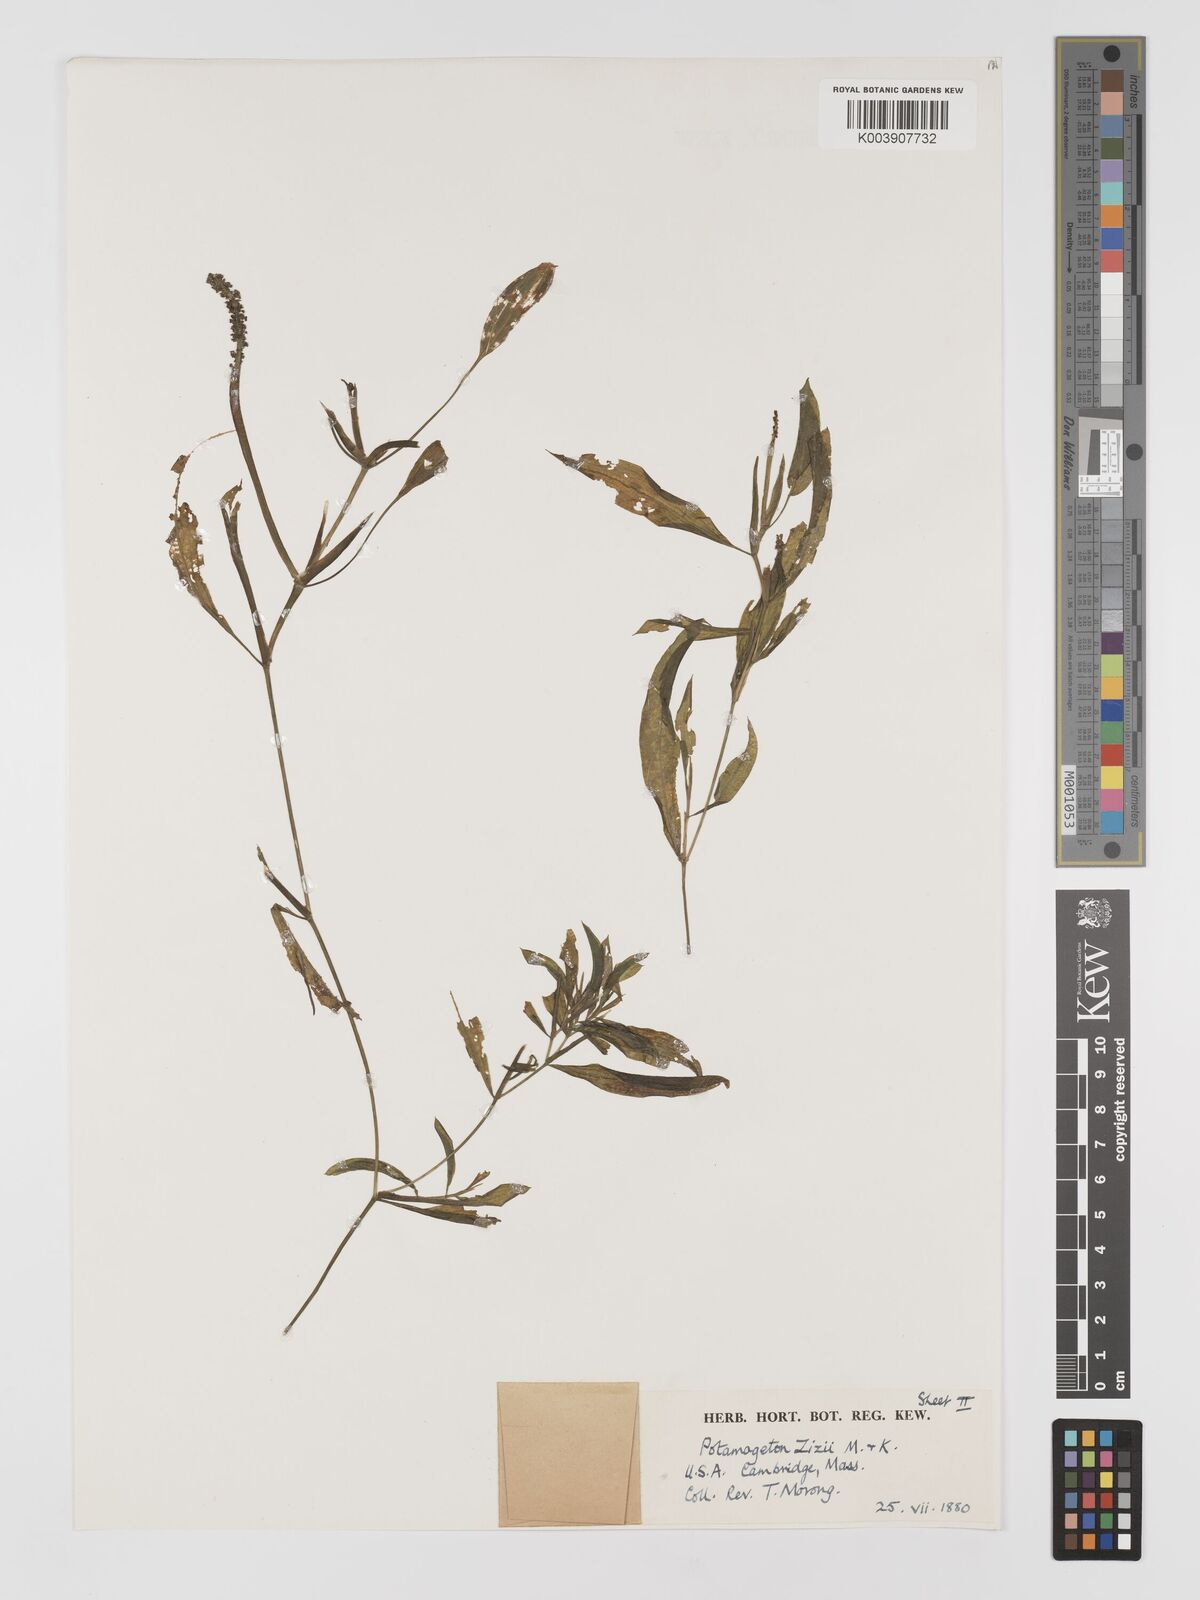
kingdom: Plantae
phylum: Tracheophyta
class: Liliopsida
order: Alismatales
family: Potamogetonaceae
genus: Potamogeton
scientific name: Potamogeton lucens
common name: Shining pondweed
